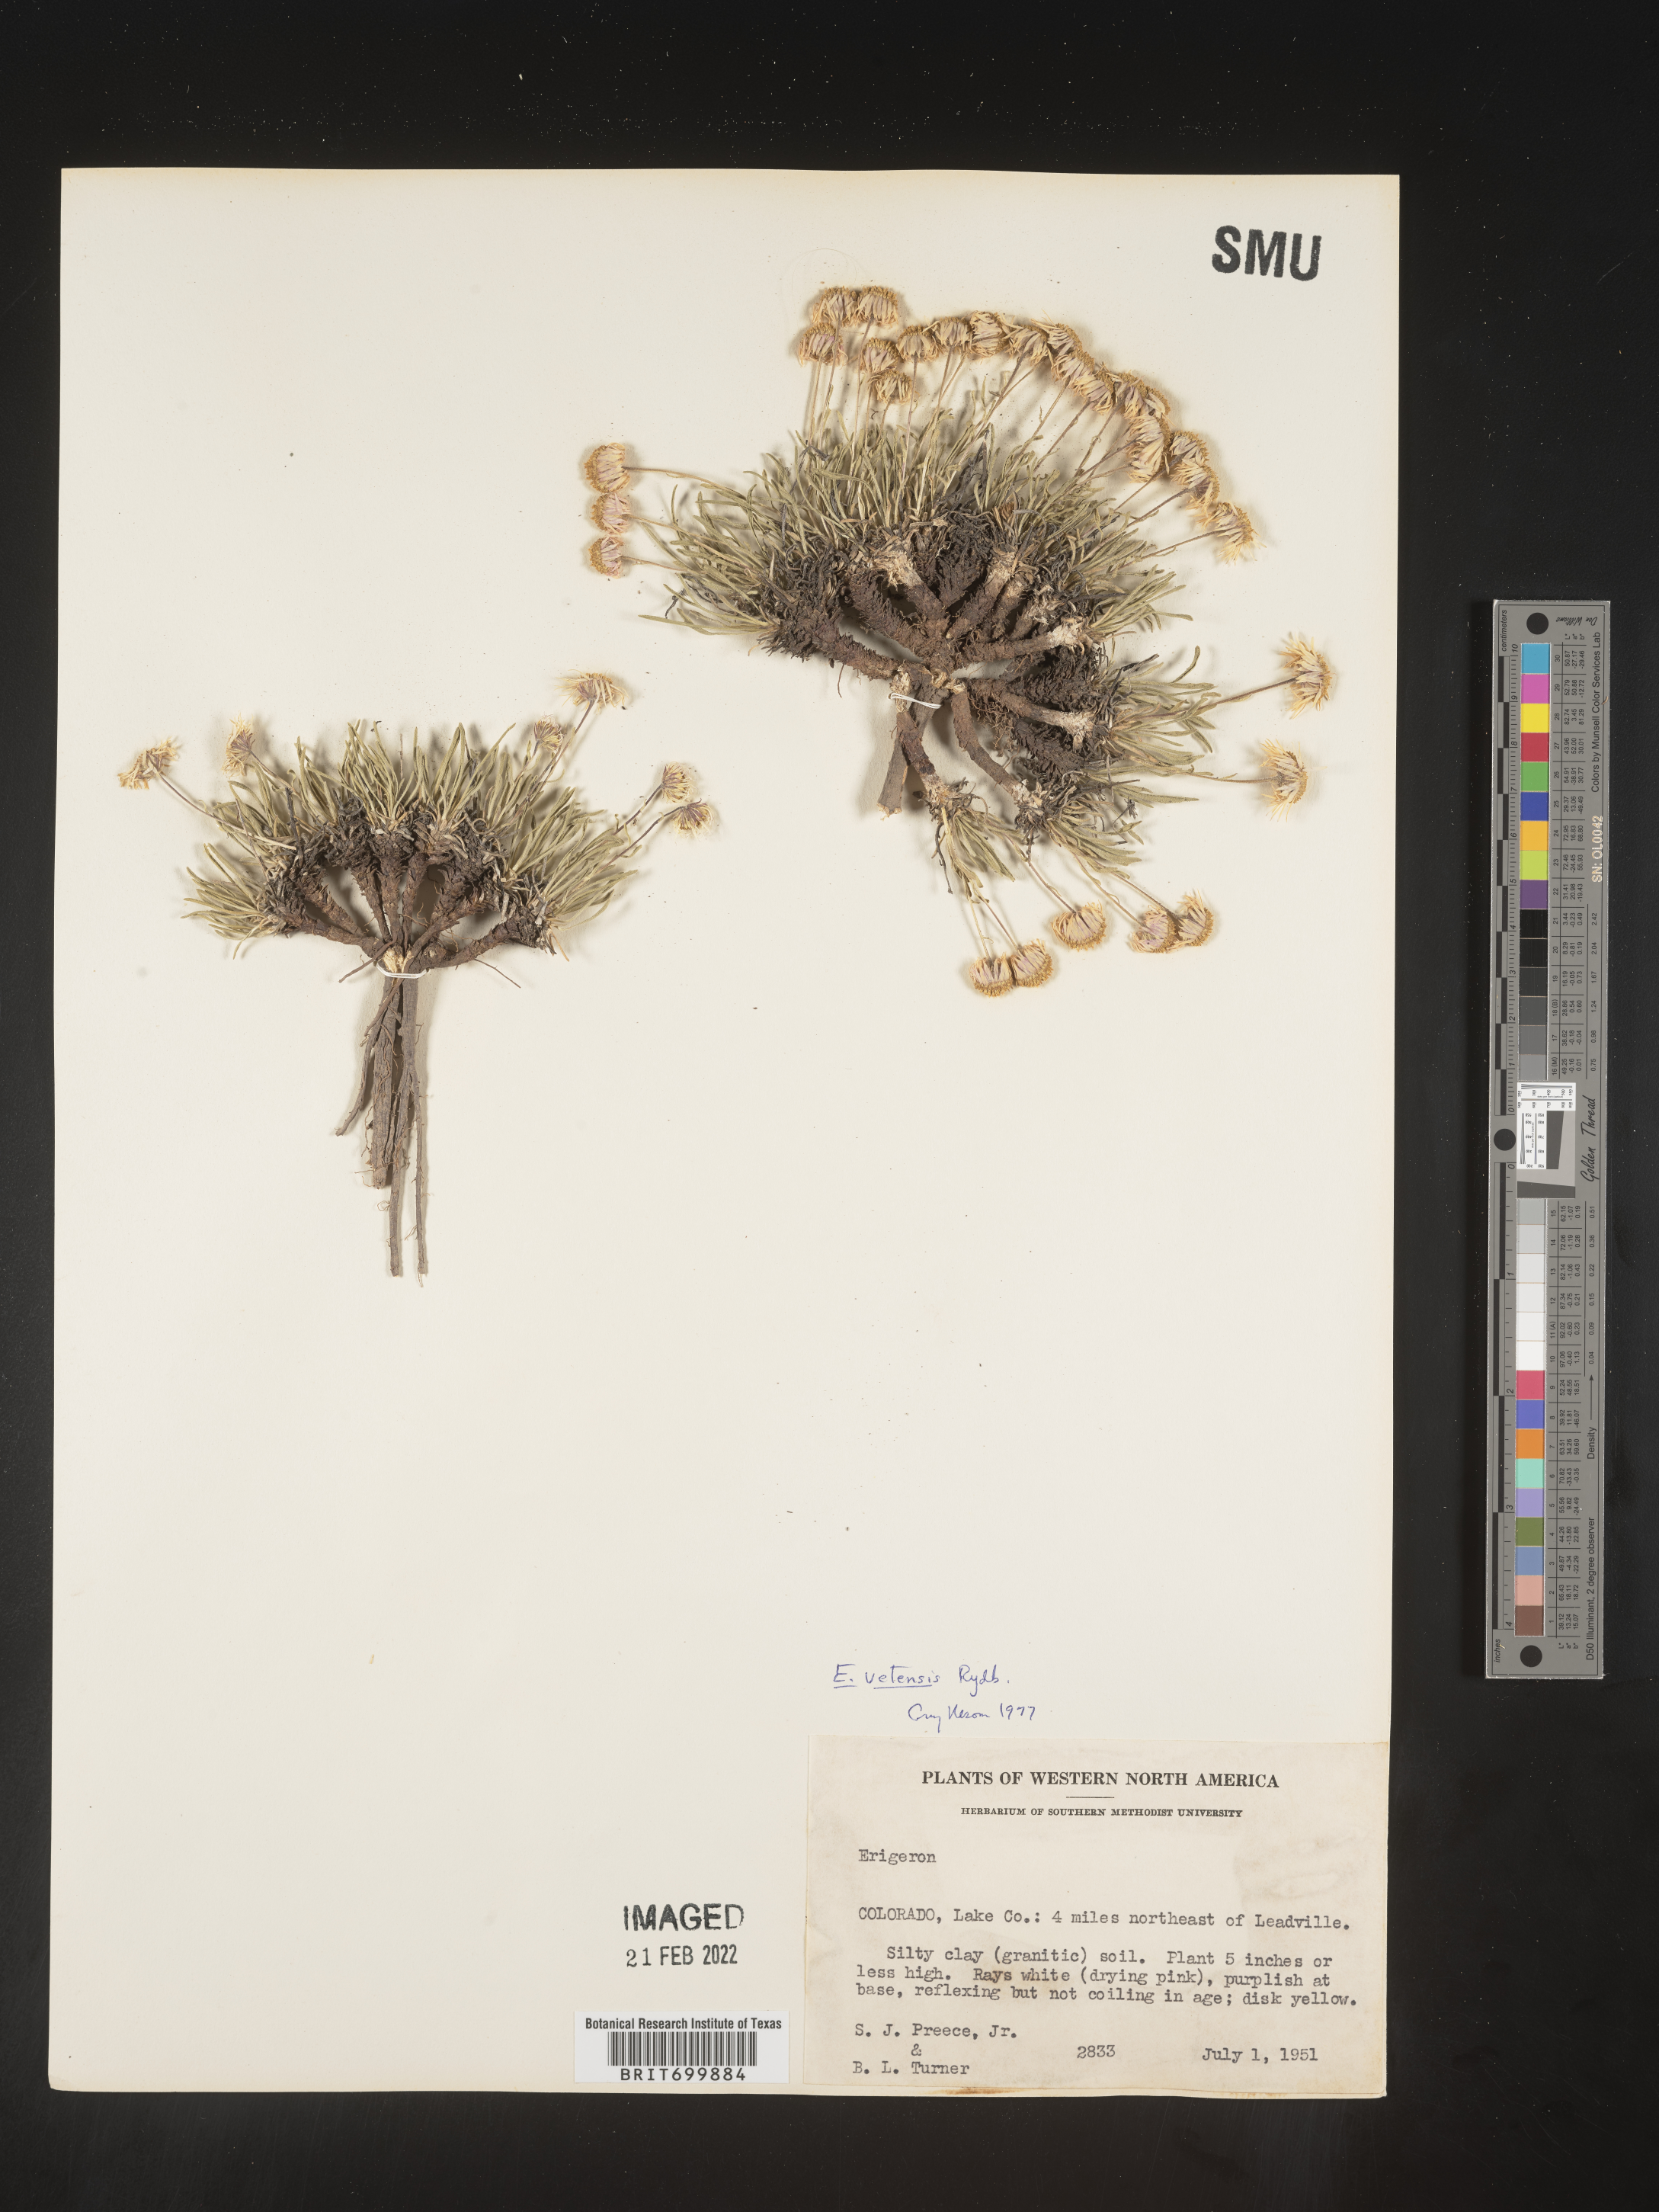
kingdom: Plantae
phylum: Tracheophyta
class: Magnoliopsida
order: Asterales
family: Asteraceae
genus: Erigeron
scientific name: Erigeron vetensis
